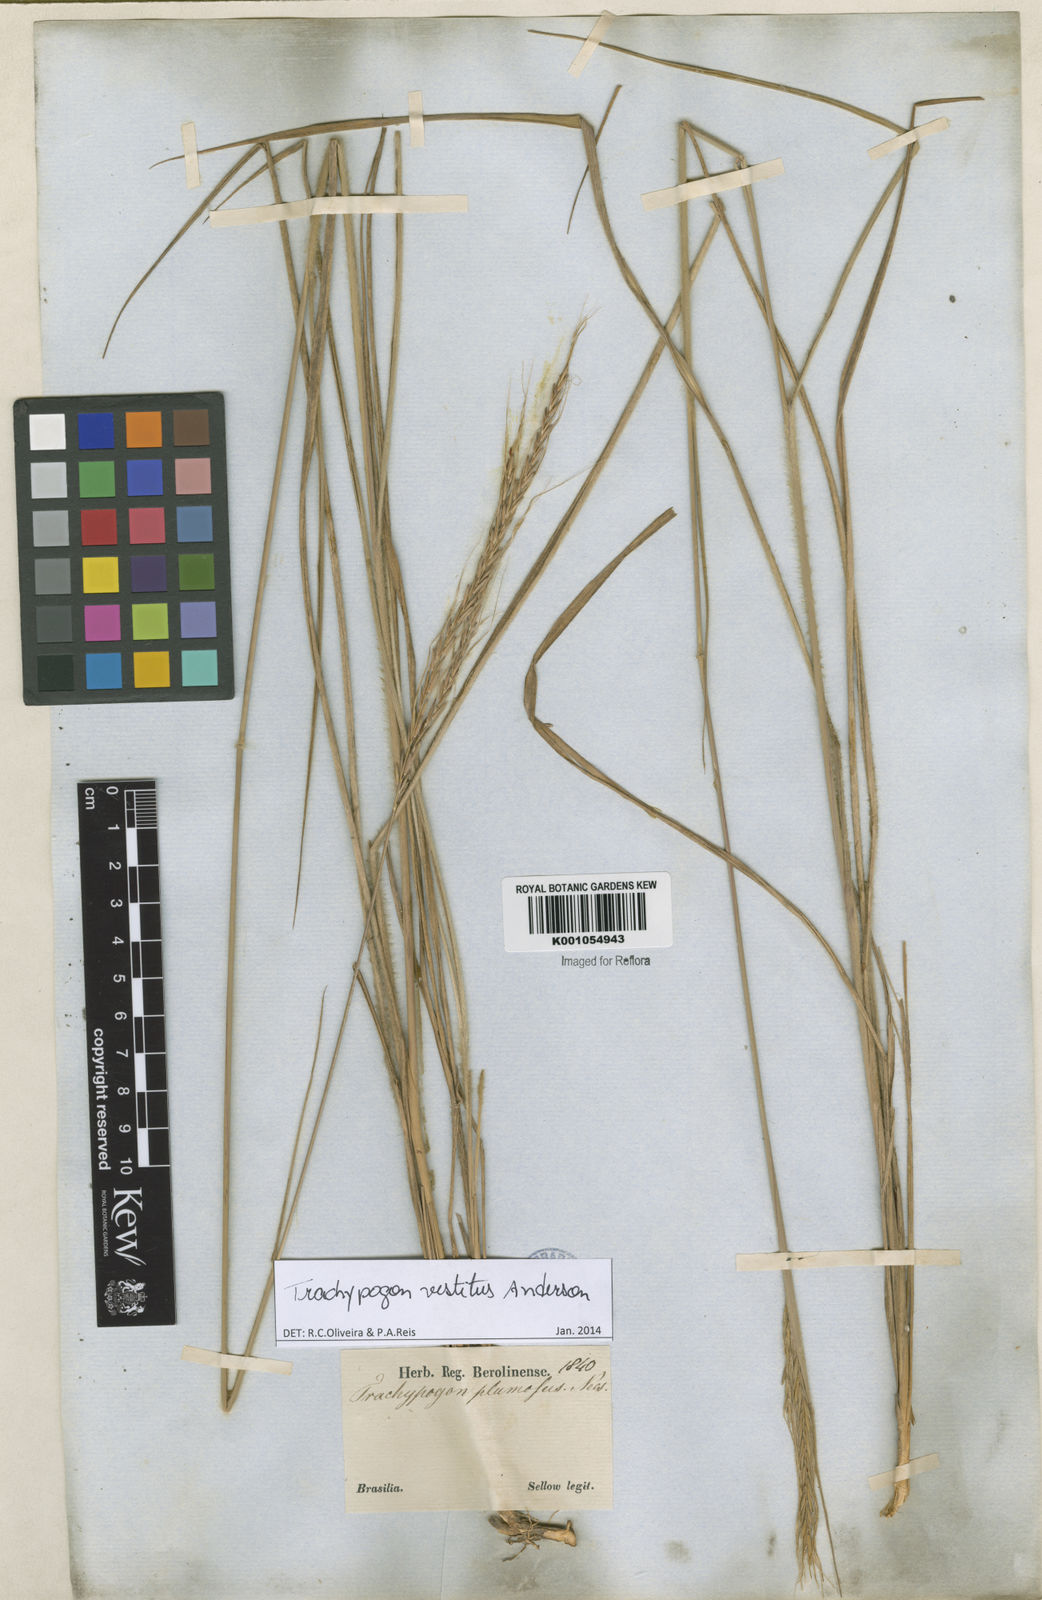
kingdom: Plantae
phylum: Tracheophyta
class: Liliopsida
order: Poales
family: Poaceae
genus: Trachypogon
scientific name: Trachypogon vestitus
